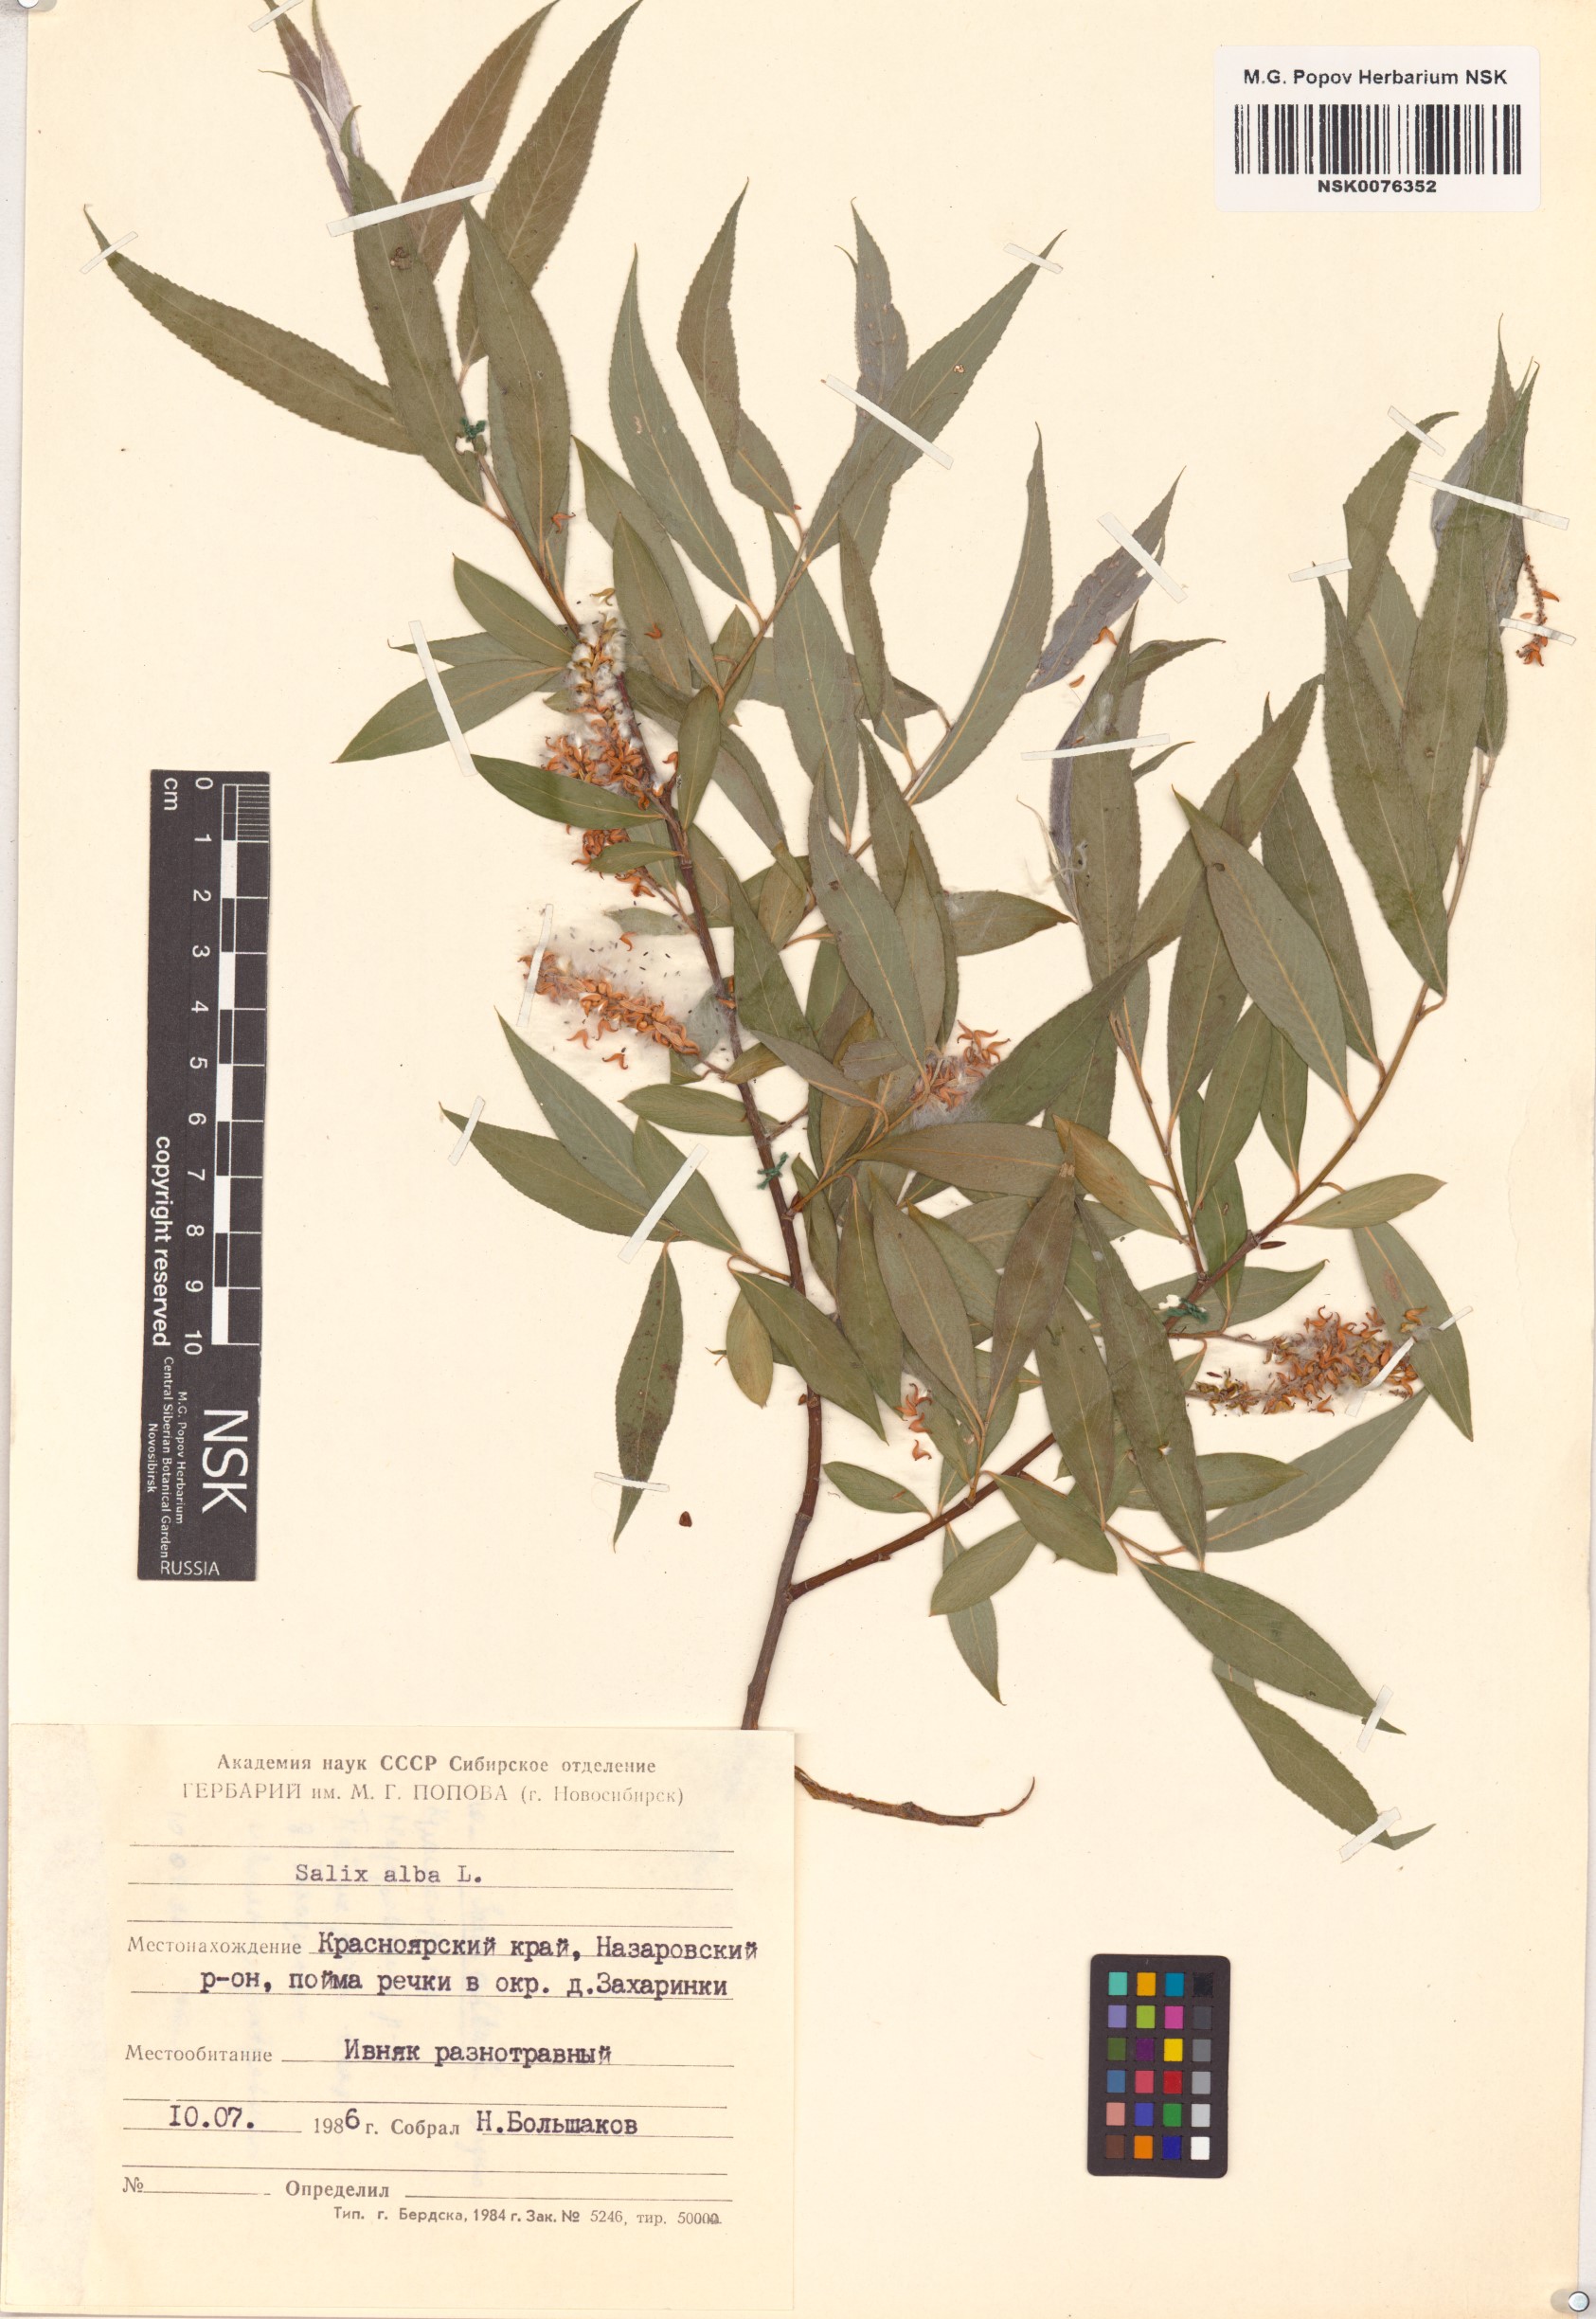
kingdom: Plantae
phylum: Tracheophyta
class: Magnoliopsida
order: Malpighiales
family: Salicaceae
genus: Salix
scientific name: Salix alba
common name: White willow
